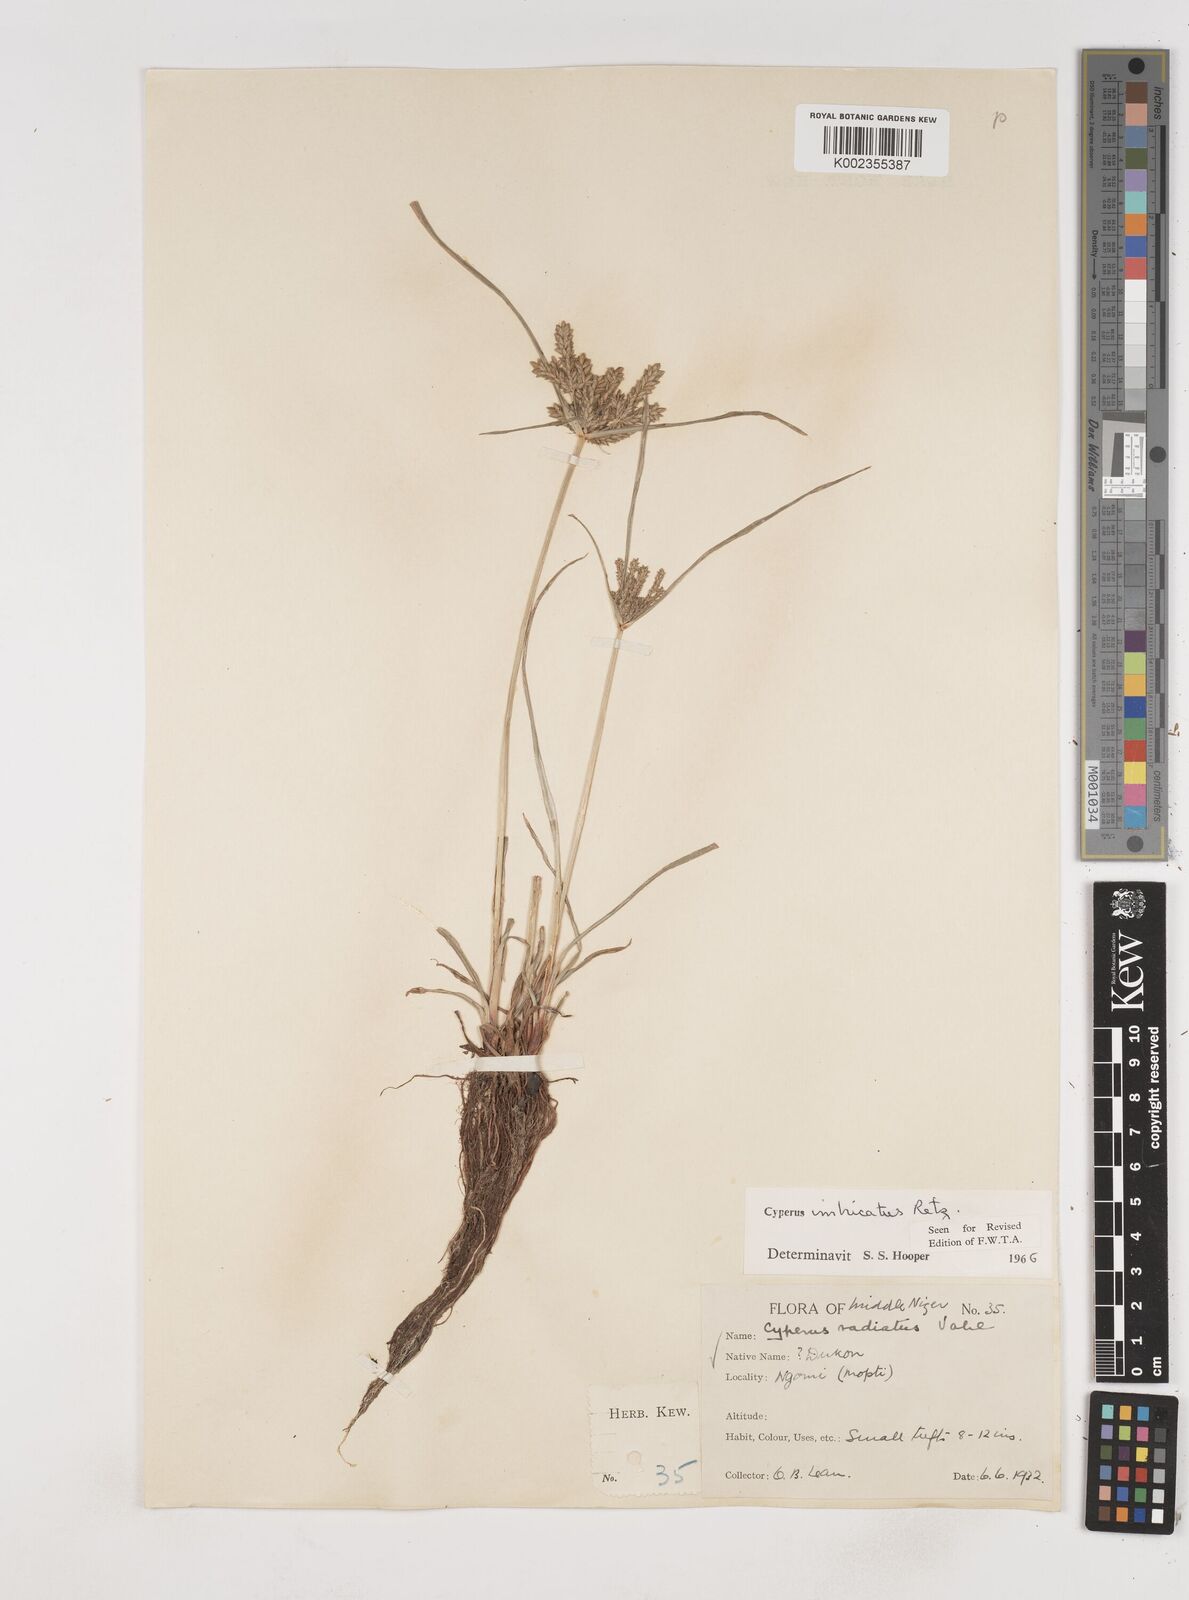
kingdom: Plantae
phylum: Tracheophyta
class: Liliopsida
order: Poales
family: Cyperaceae
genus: Cyperus
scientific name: Cyperus imbricatus
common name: Shingle flatsedge
